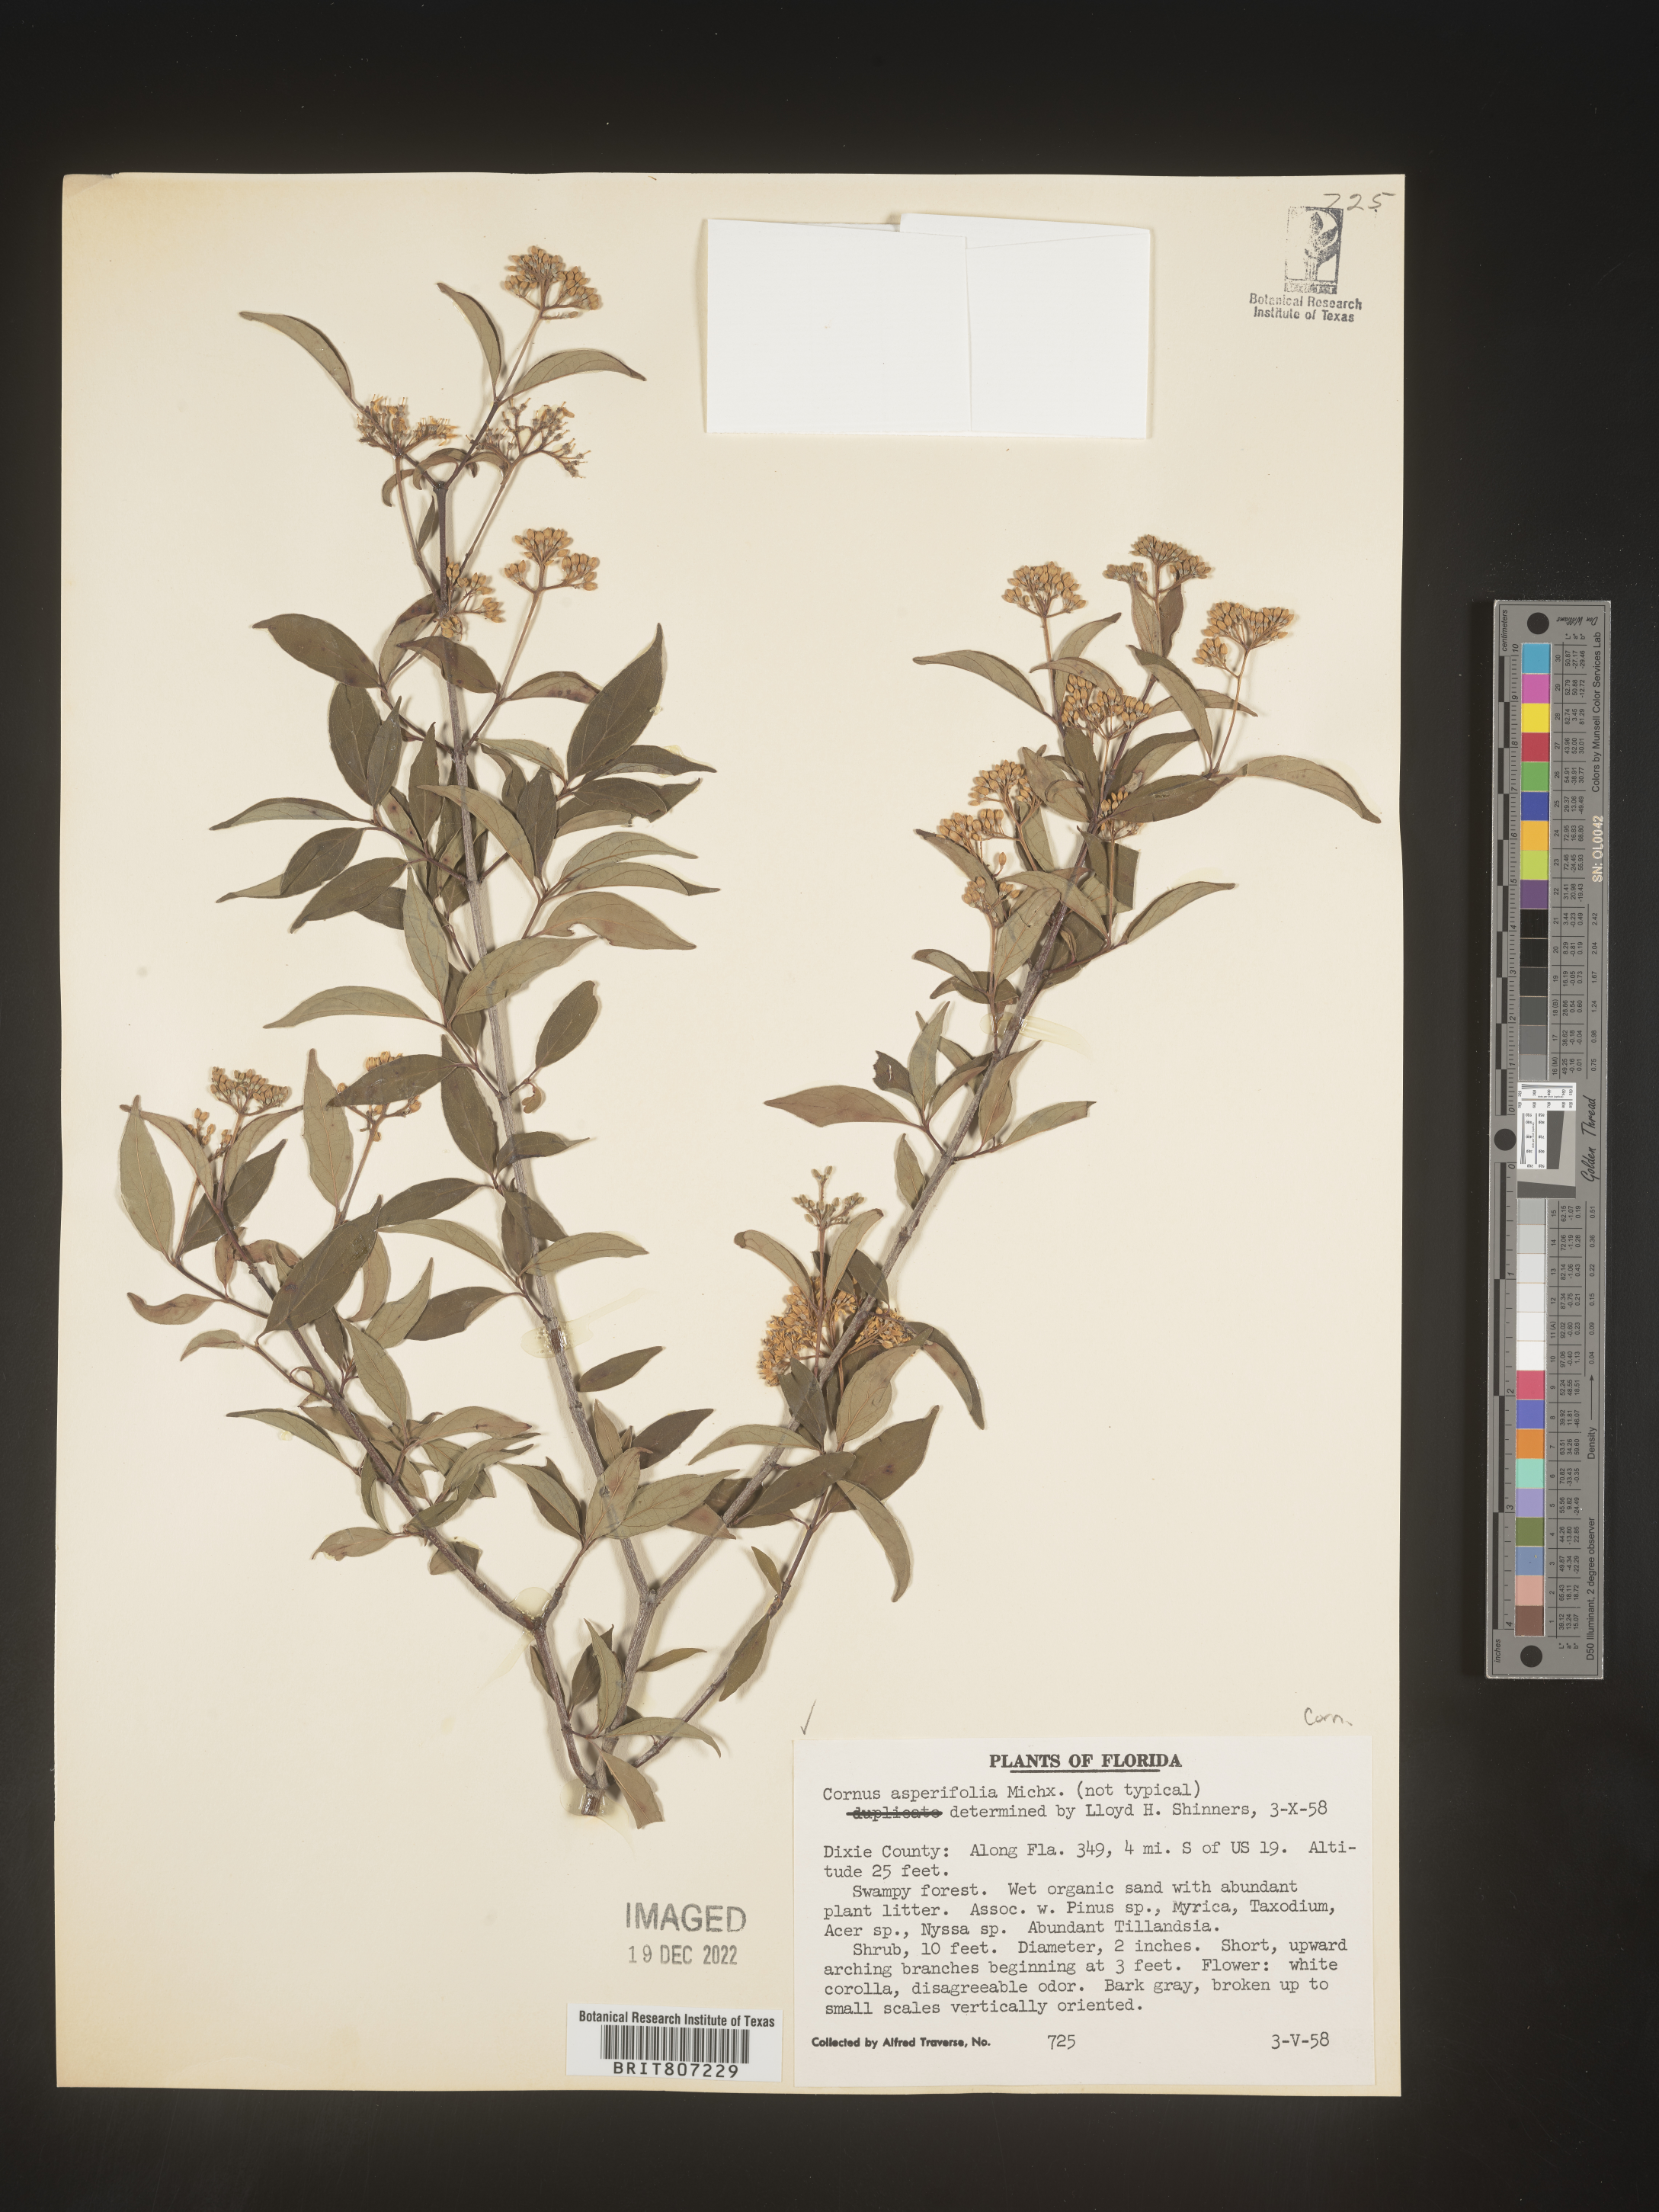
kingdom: Plantae
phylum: Tracheophyta
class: Magnoliopsida
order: Cornales
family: Cornaceae
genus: Cornus
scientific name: Cornus asperifolia
